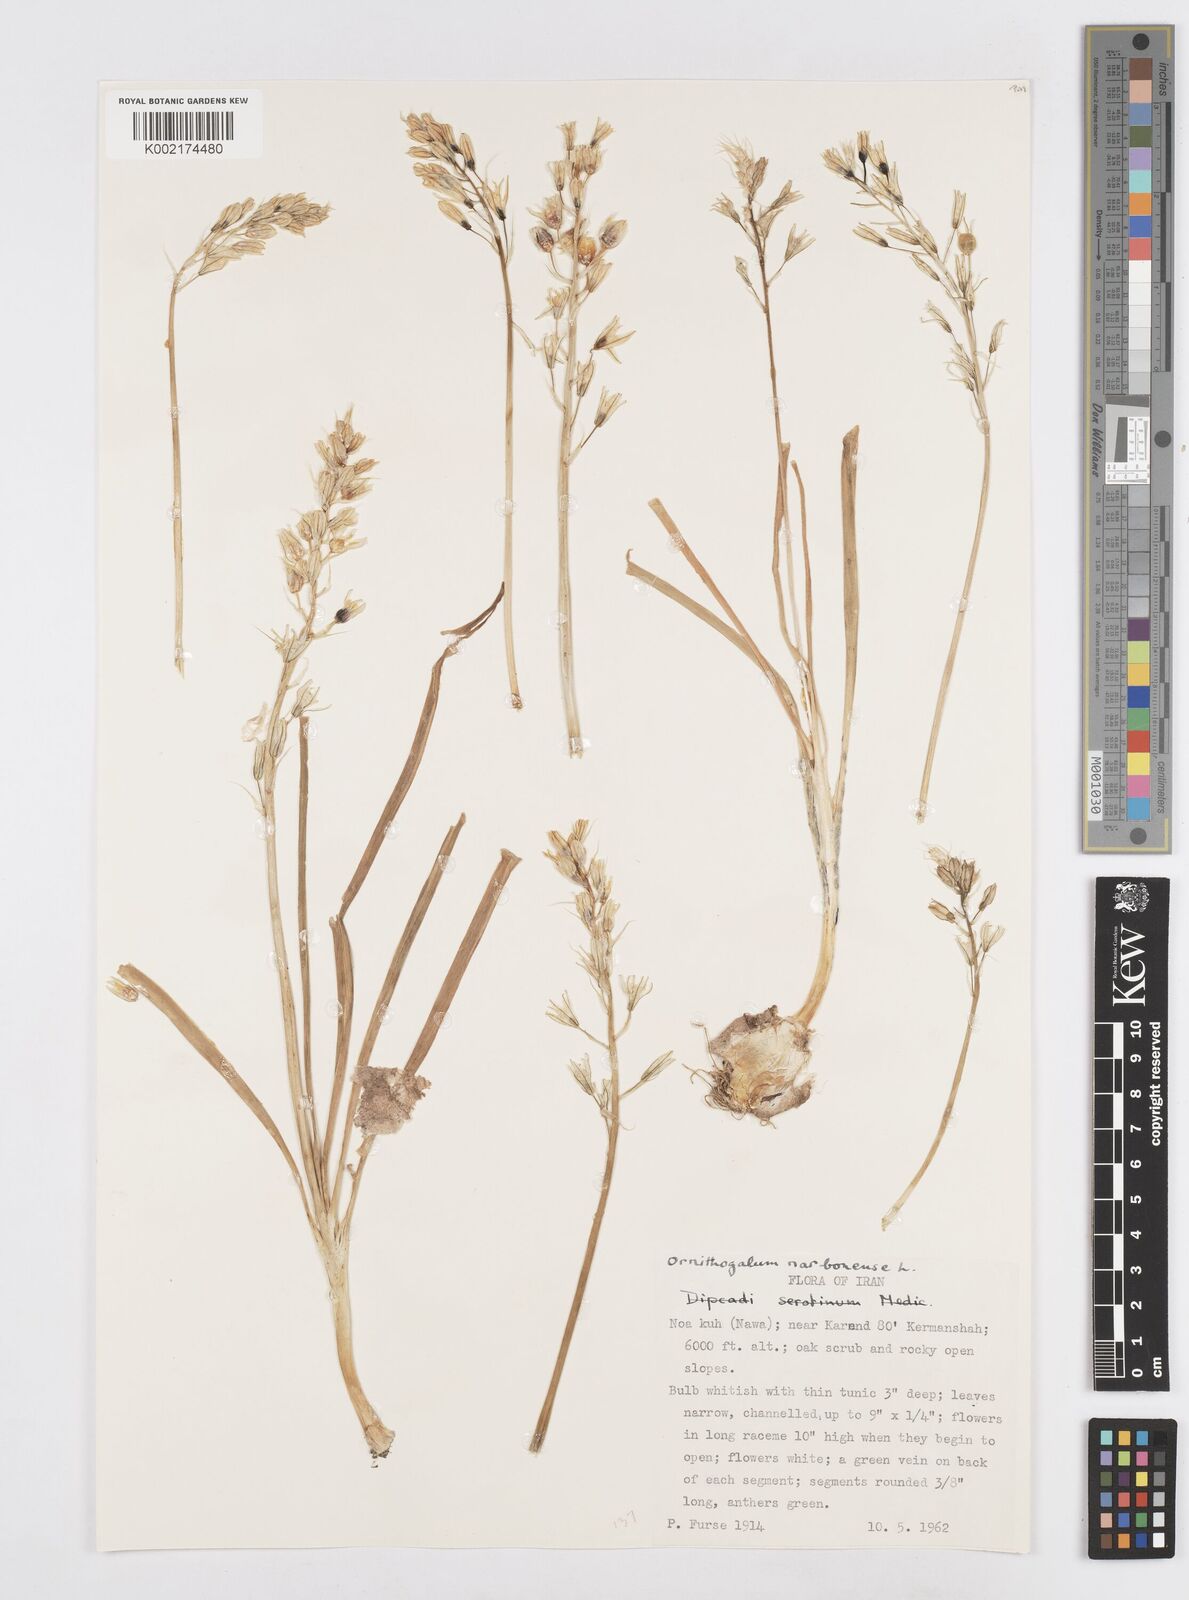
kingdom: Plantae
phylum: Tracheophyta
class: Liliopsida
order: Asparagales
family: Asparagaceae
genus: Ornithogalum
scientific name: Ornithogalum narbonense
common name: Bath-asparagus
